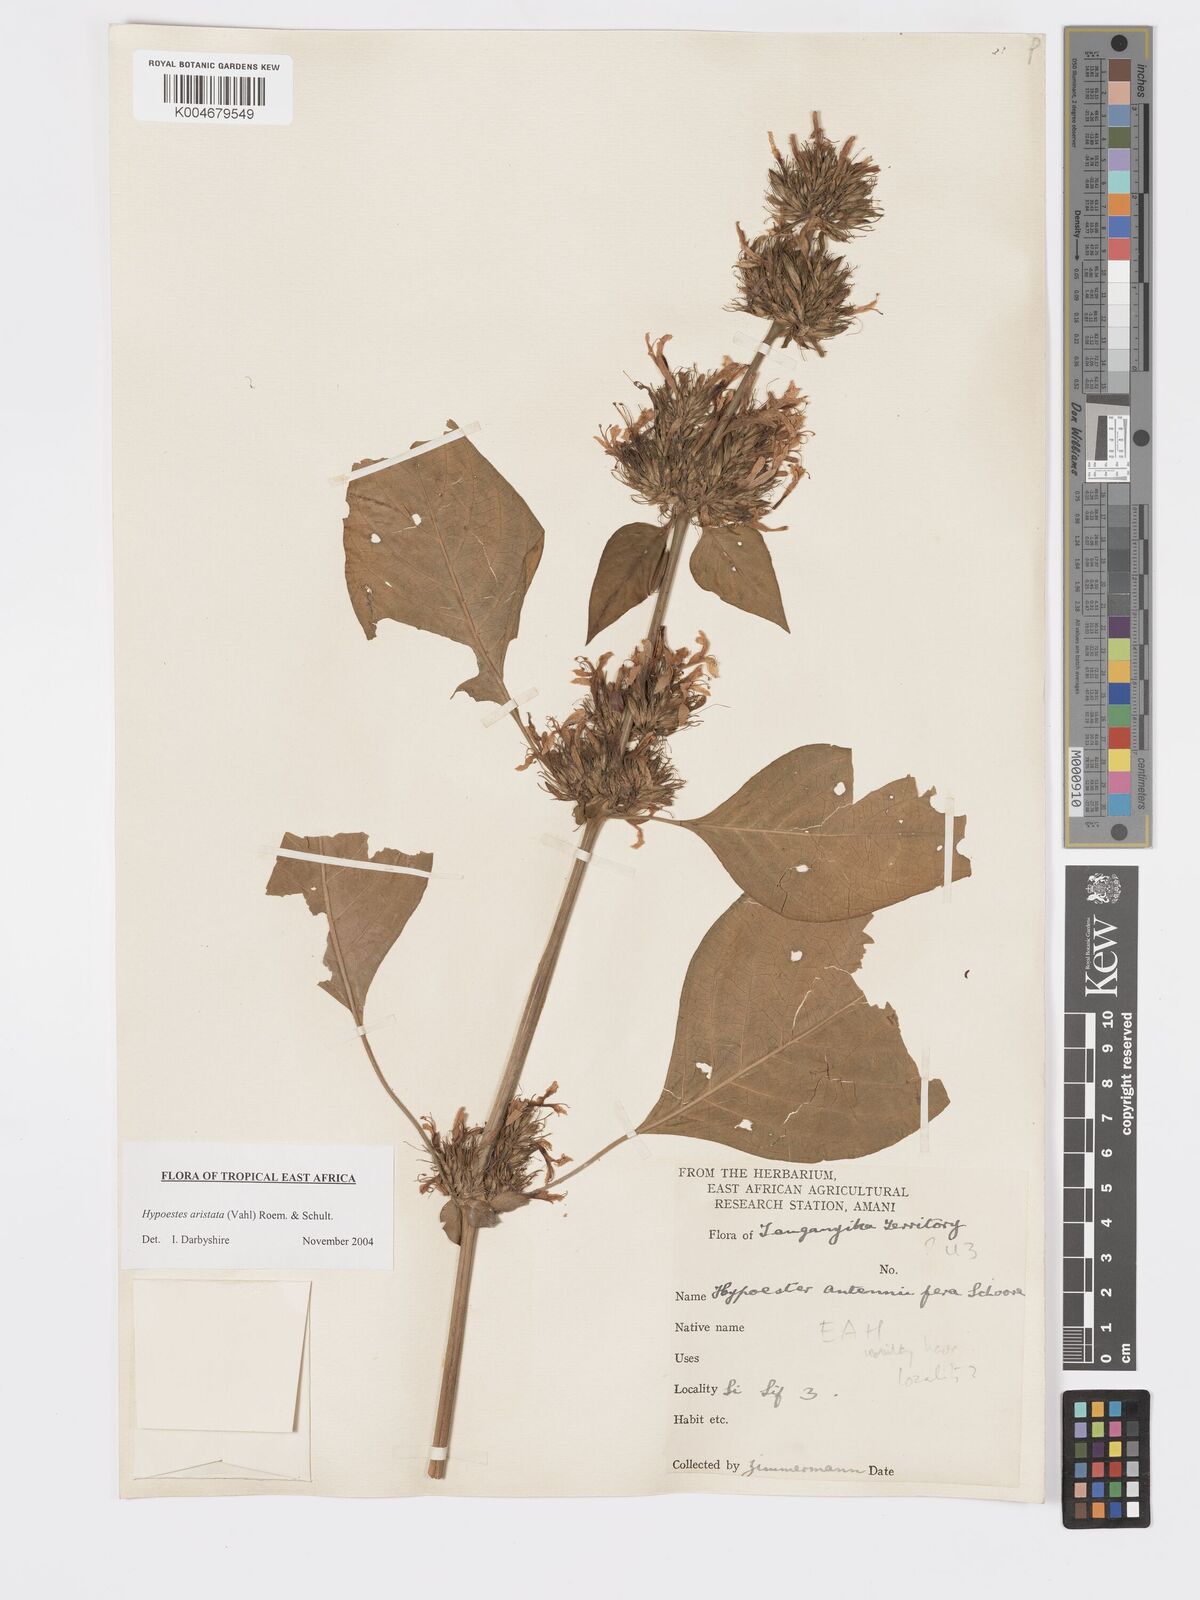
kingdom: Plantae
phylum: Tracheophyta
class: Magnoliopsida
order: Lamiales
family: Acanthaceae
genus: Hypoestes
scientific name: Hypoestes aristata
